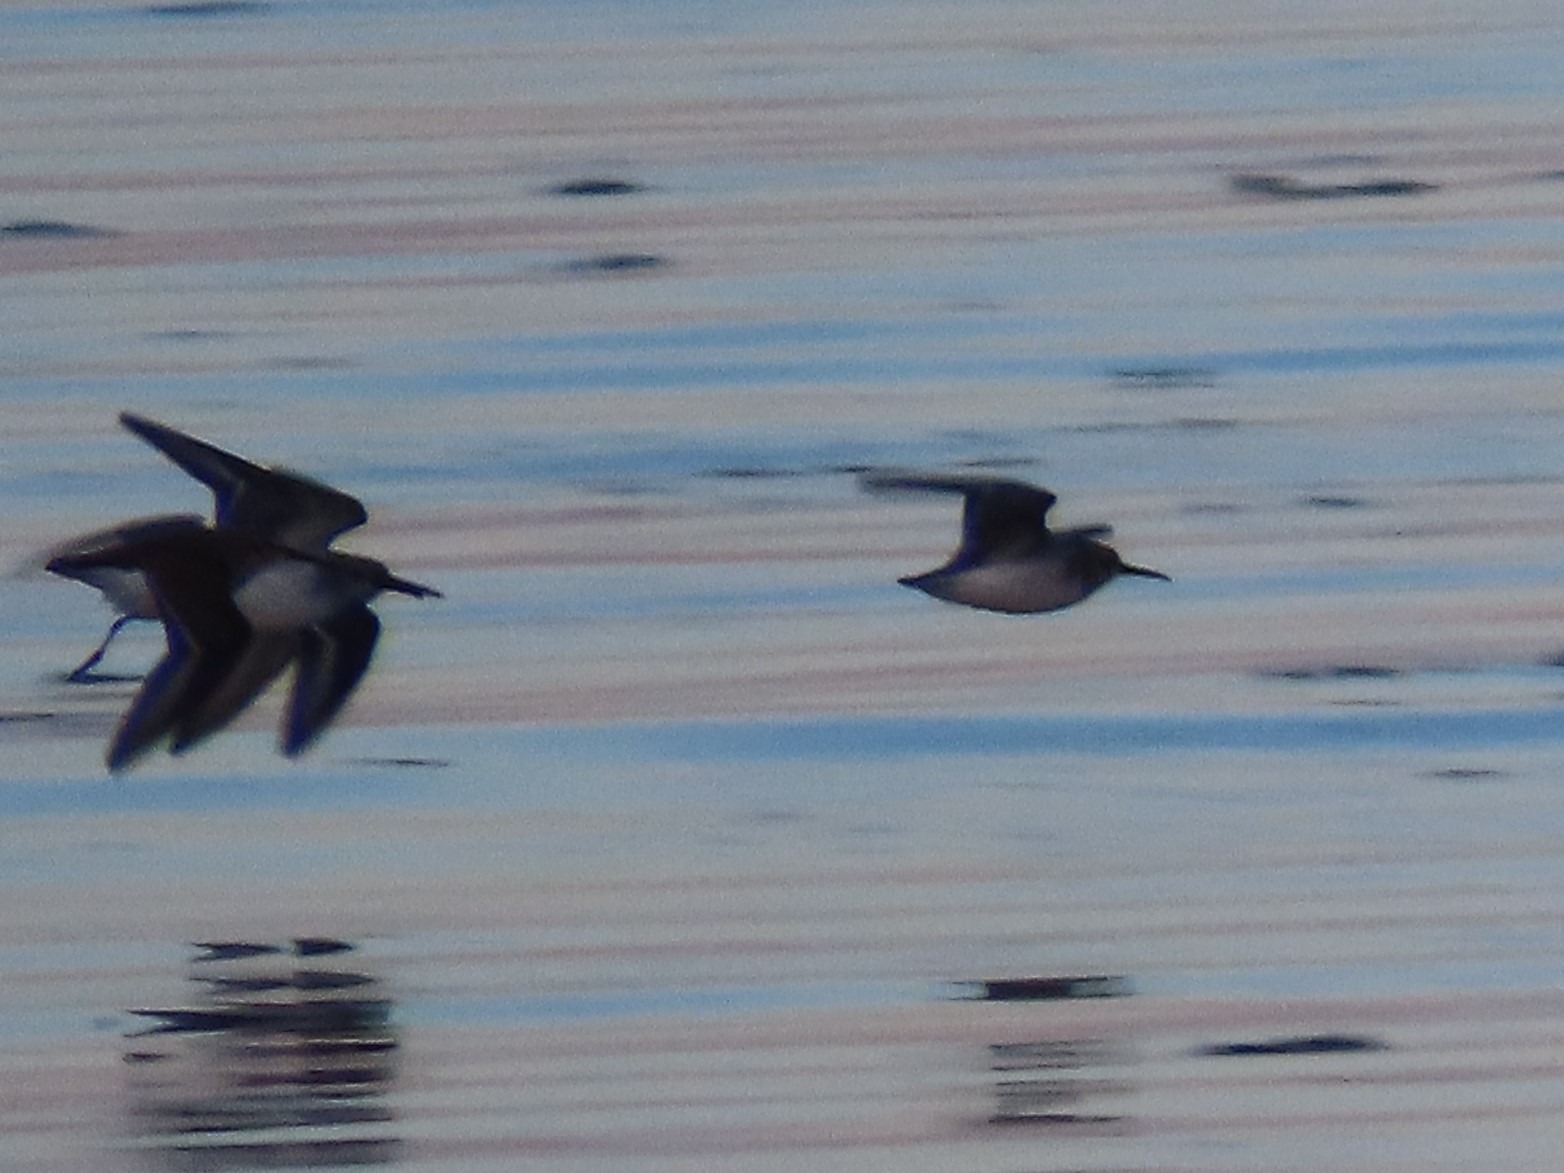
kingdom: Animalia
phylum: Chordata
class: Aves
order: Charadriiformes
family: Scolopacidae
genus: Calidris
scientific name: Calidris alpina
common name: Almindelig ryle
